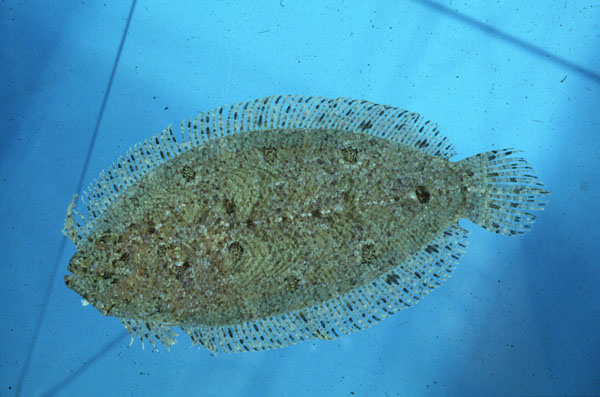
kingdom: Animalia
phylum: Chordata
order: Pleuronectiformes
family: Bothidae
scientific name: Bothidae
